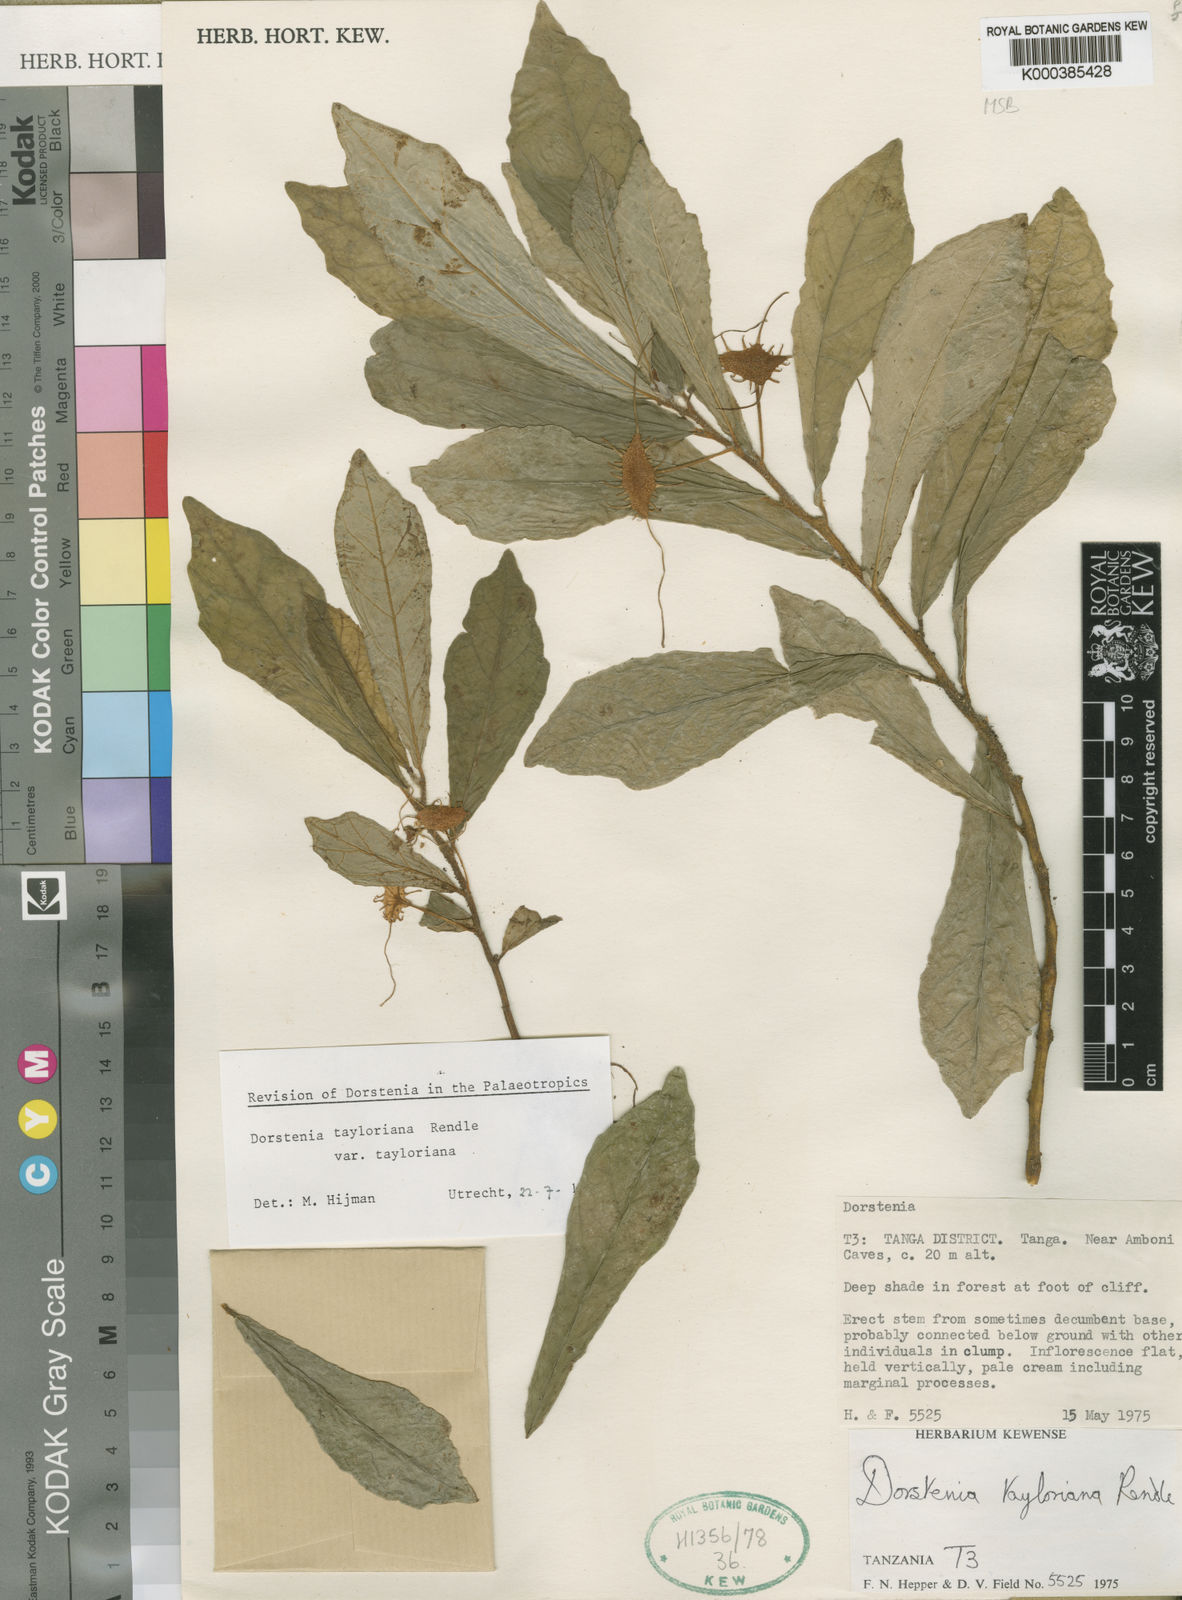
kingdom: Plantae
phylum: Tracheophyta
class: Magnoliopsida
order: Rosales
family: Moraceae
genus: Dorstenia
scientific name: Dorstenia tayloriana
